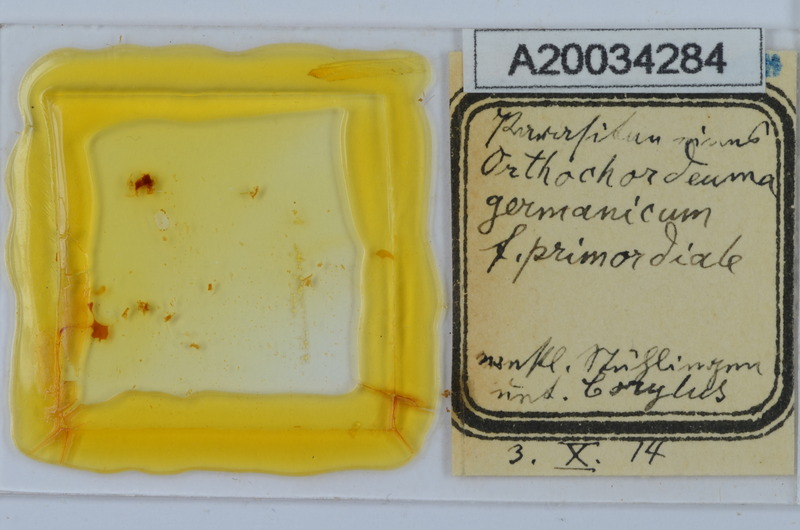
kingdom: Animalia
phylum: Arthropoda
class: Diplopoda
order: Chordeumatida
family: Chordeumatidae
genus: Mycogona
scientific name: Mycogona germanica
